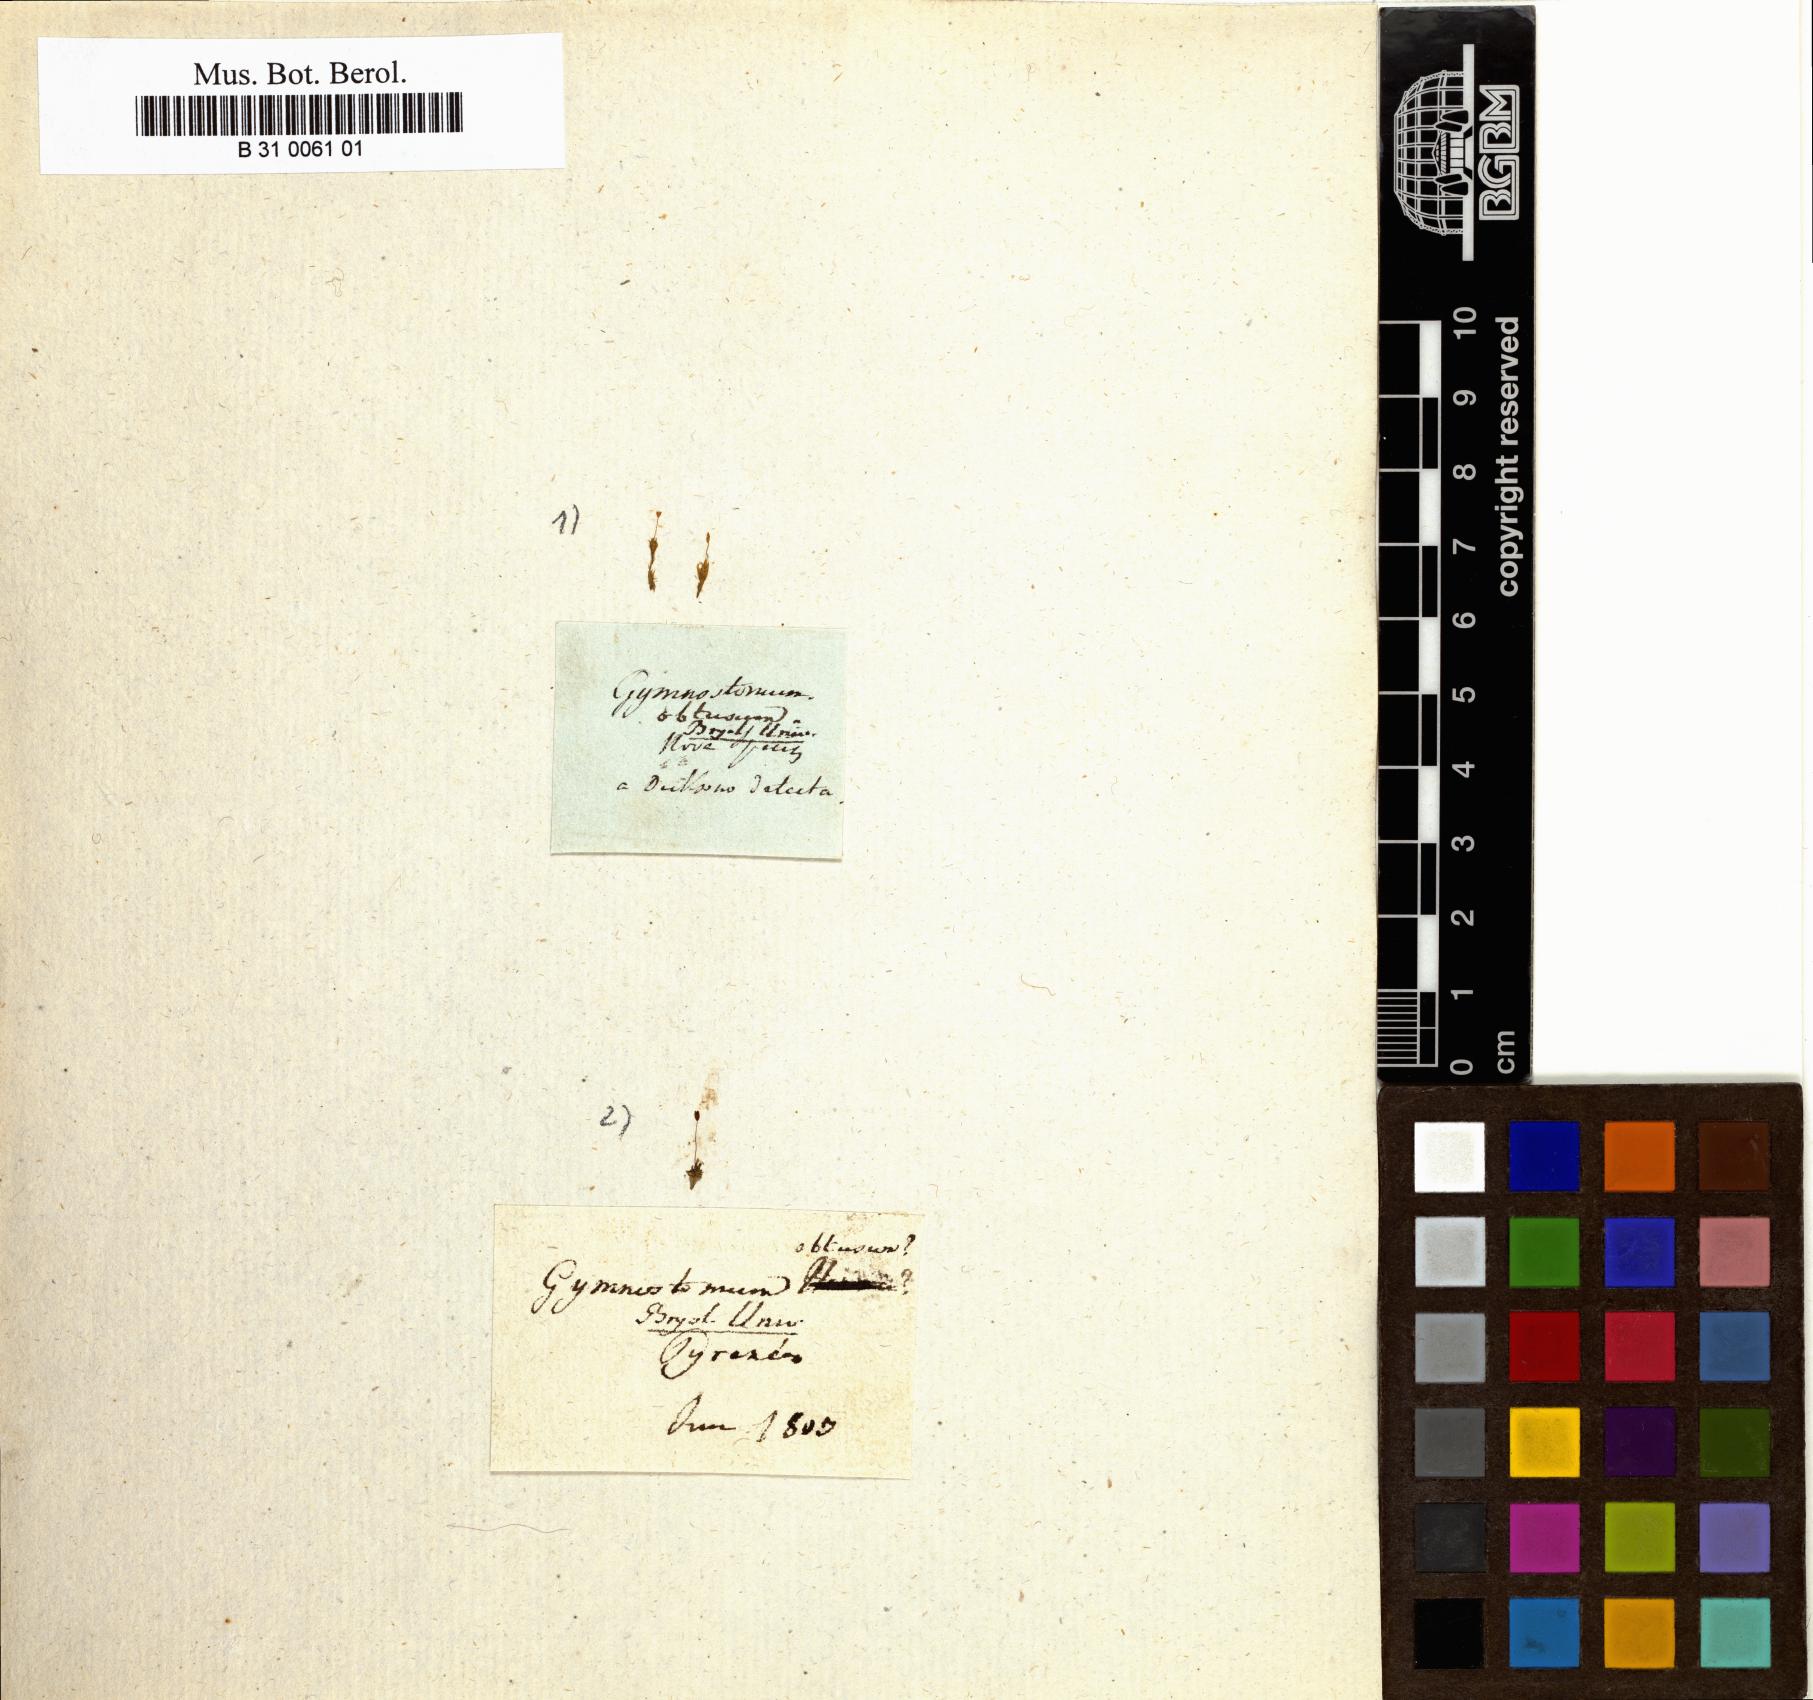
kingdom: Plantae
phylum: Bryophyta
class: Bryopsida
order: Funariales
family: Funariaceae
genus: Entosthodon
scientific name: Entosthodon obtusus
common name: Blunt cord-moss
